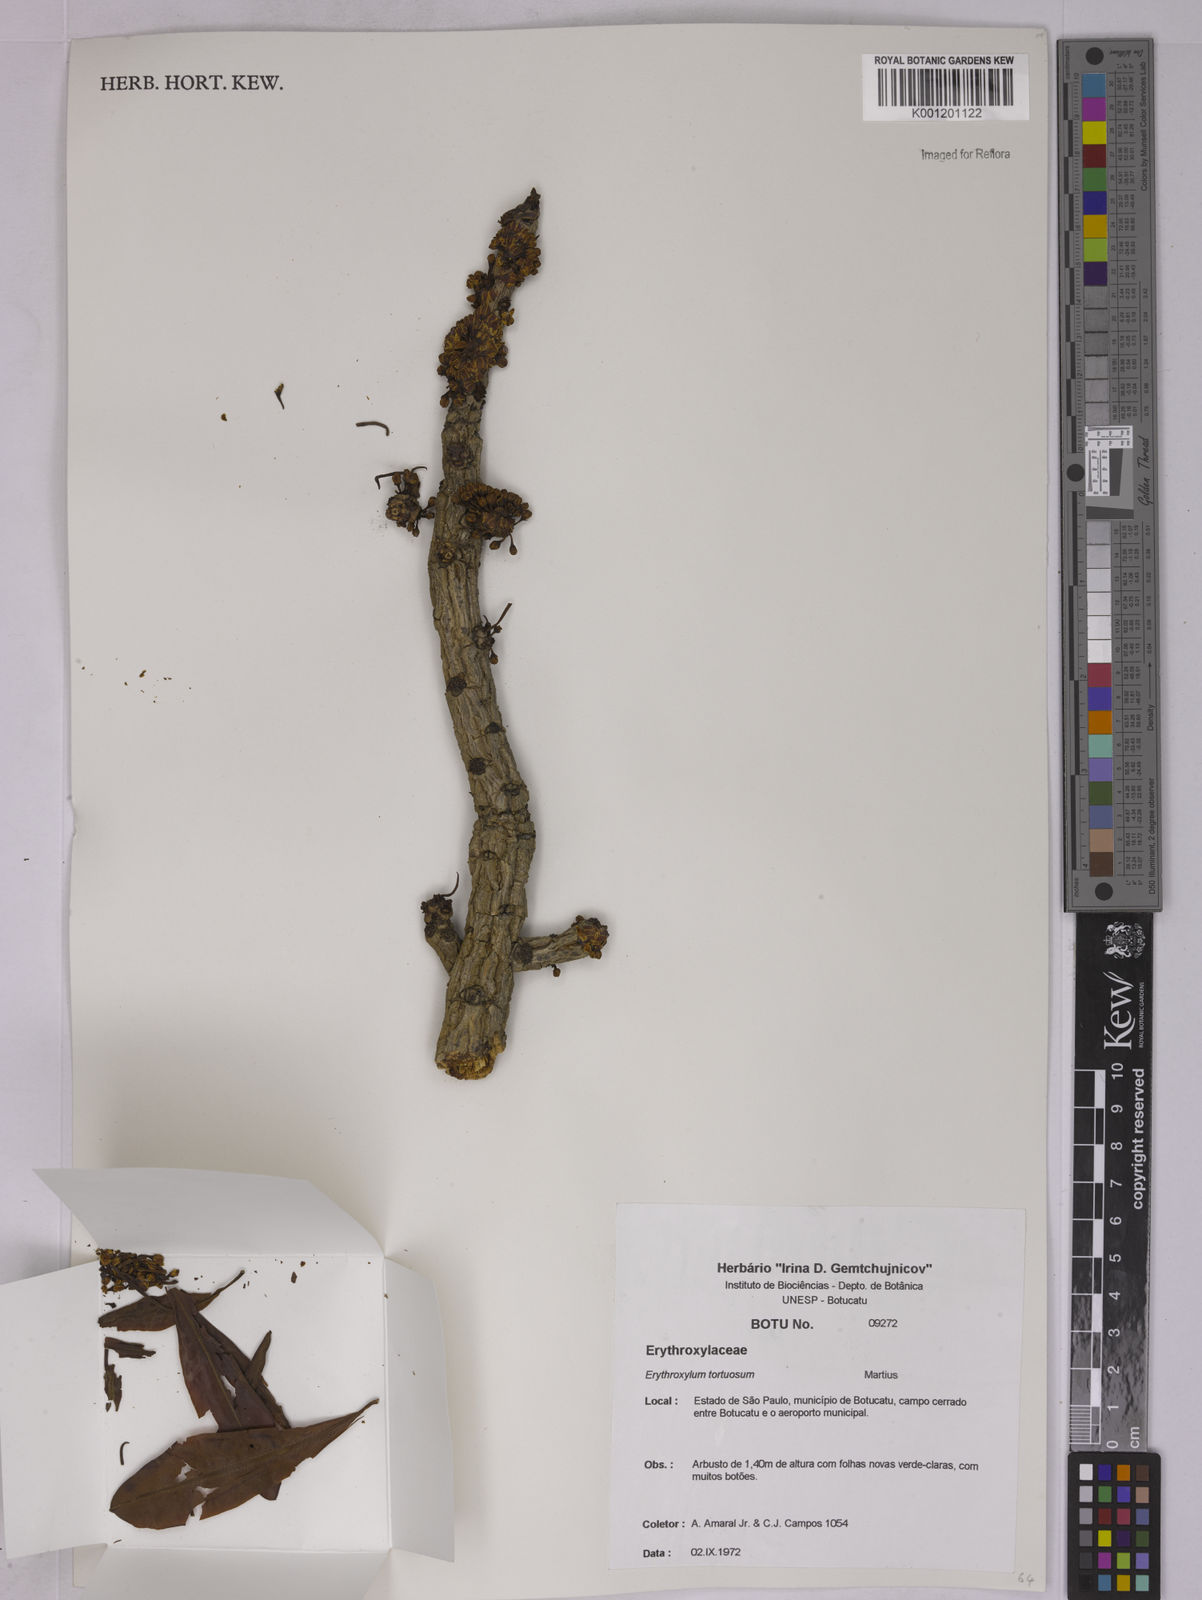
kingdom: Plantae
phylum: Tracheophyta
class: Magnoliopsida
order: Malpighiales
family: Erythroxylaceae
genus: Erythroxylum
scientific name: Erythroxylum tortuosum
